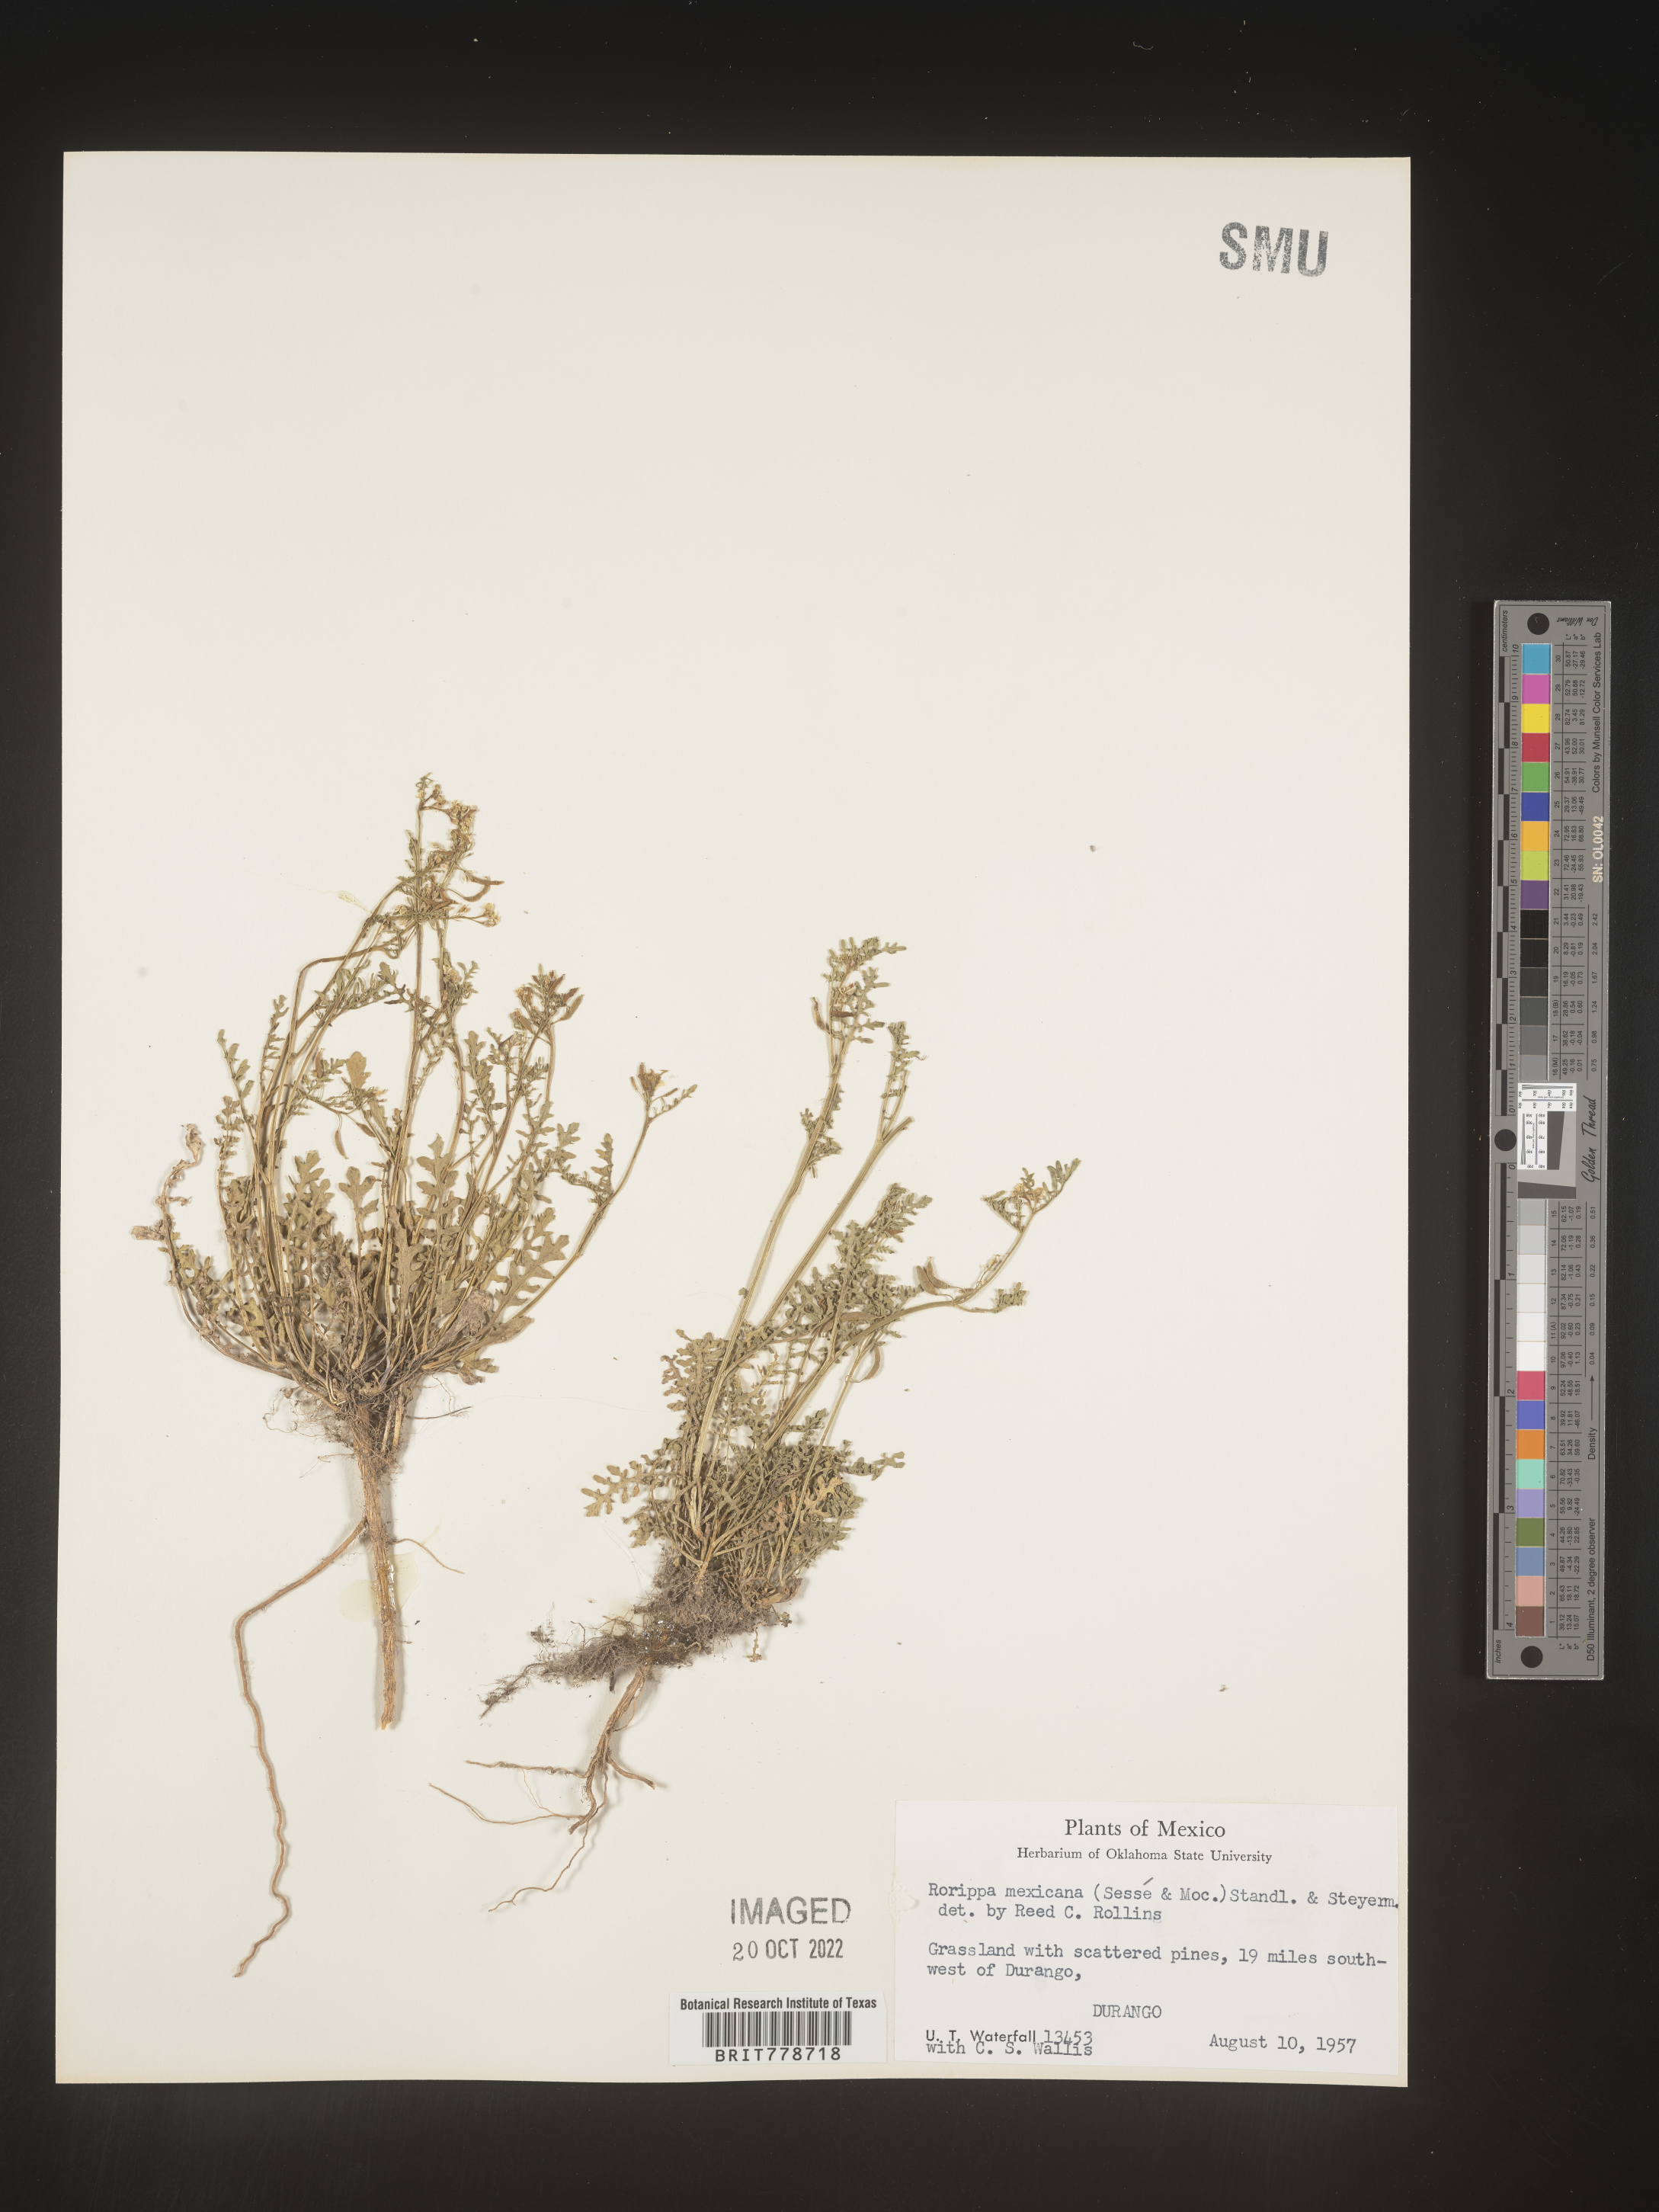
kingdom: Plantae
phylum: Tracheophyta
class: Magnoliopsida
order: Brassicales
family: Brassicaceae
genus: Rorippa
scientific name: Rorippa
